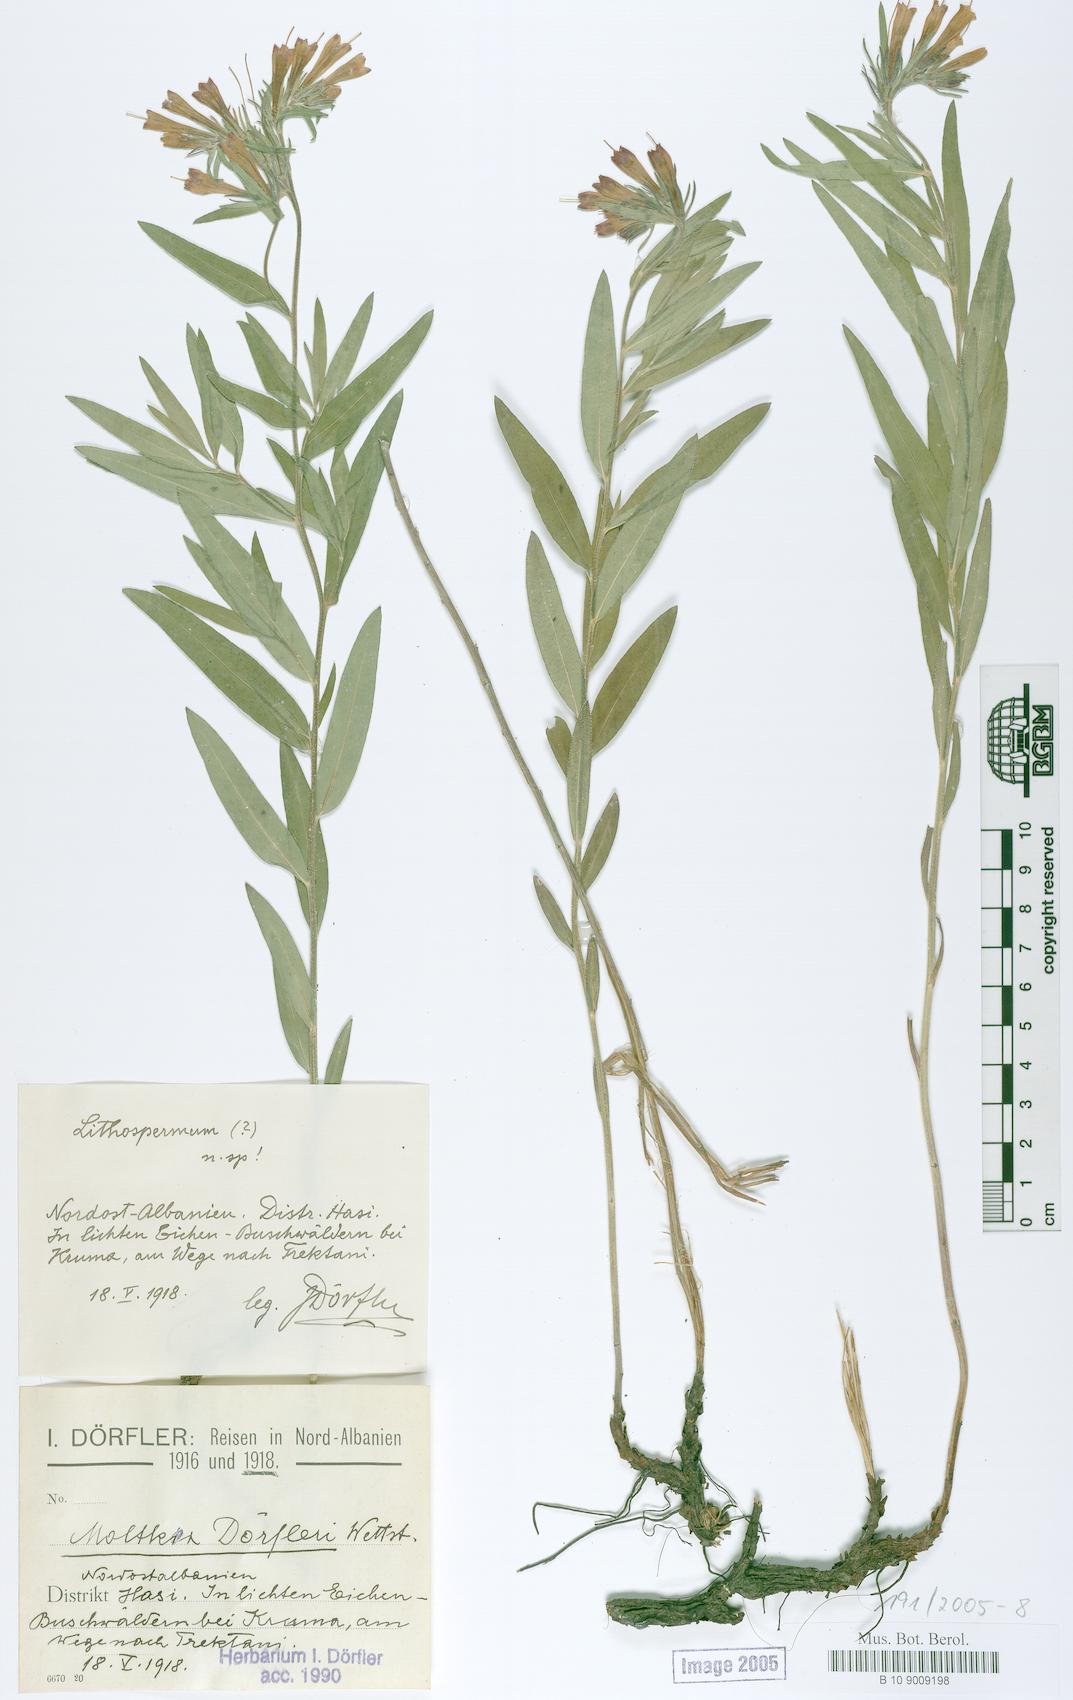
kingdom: Plantae
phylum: Tracheophyta
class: Magnoliopsida
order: Boraginales
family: Boraginaceae
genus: Paramoltkia
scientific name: Paramoltkia doerfleri
